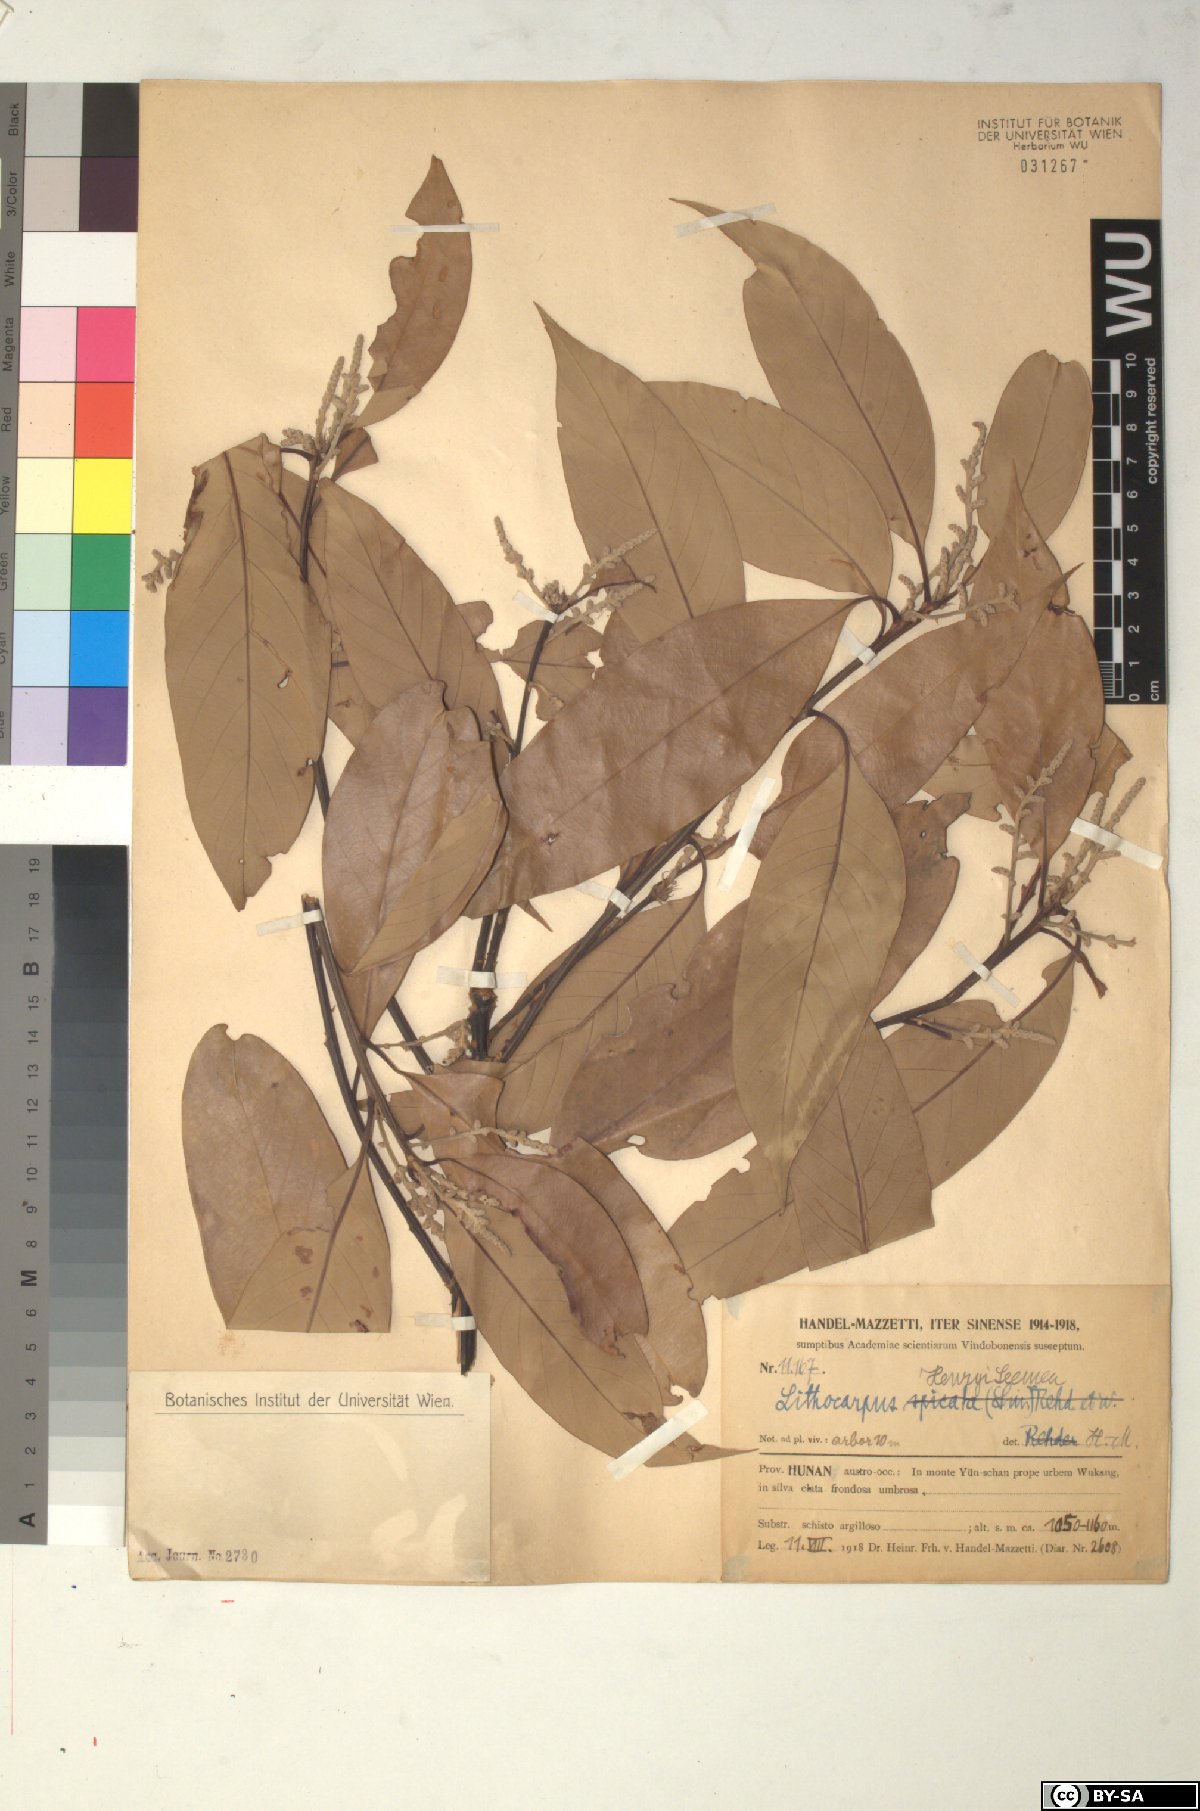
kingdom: Plantae
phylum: Tracheophyta
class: Magnoliopsida
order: Fagales
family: Fagaceae
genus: Lithocarpus
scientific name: Lithocarpus henryi
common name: Henry tanbark oak
